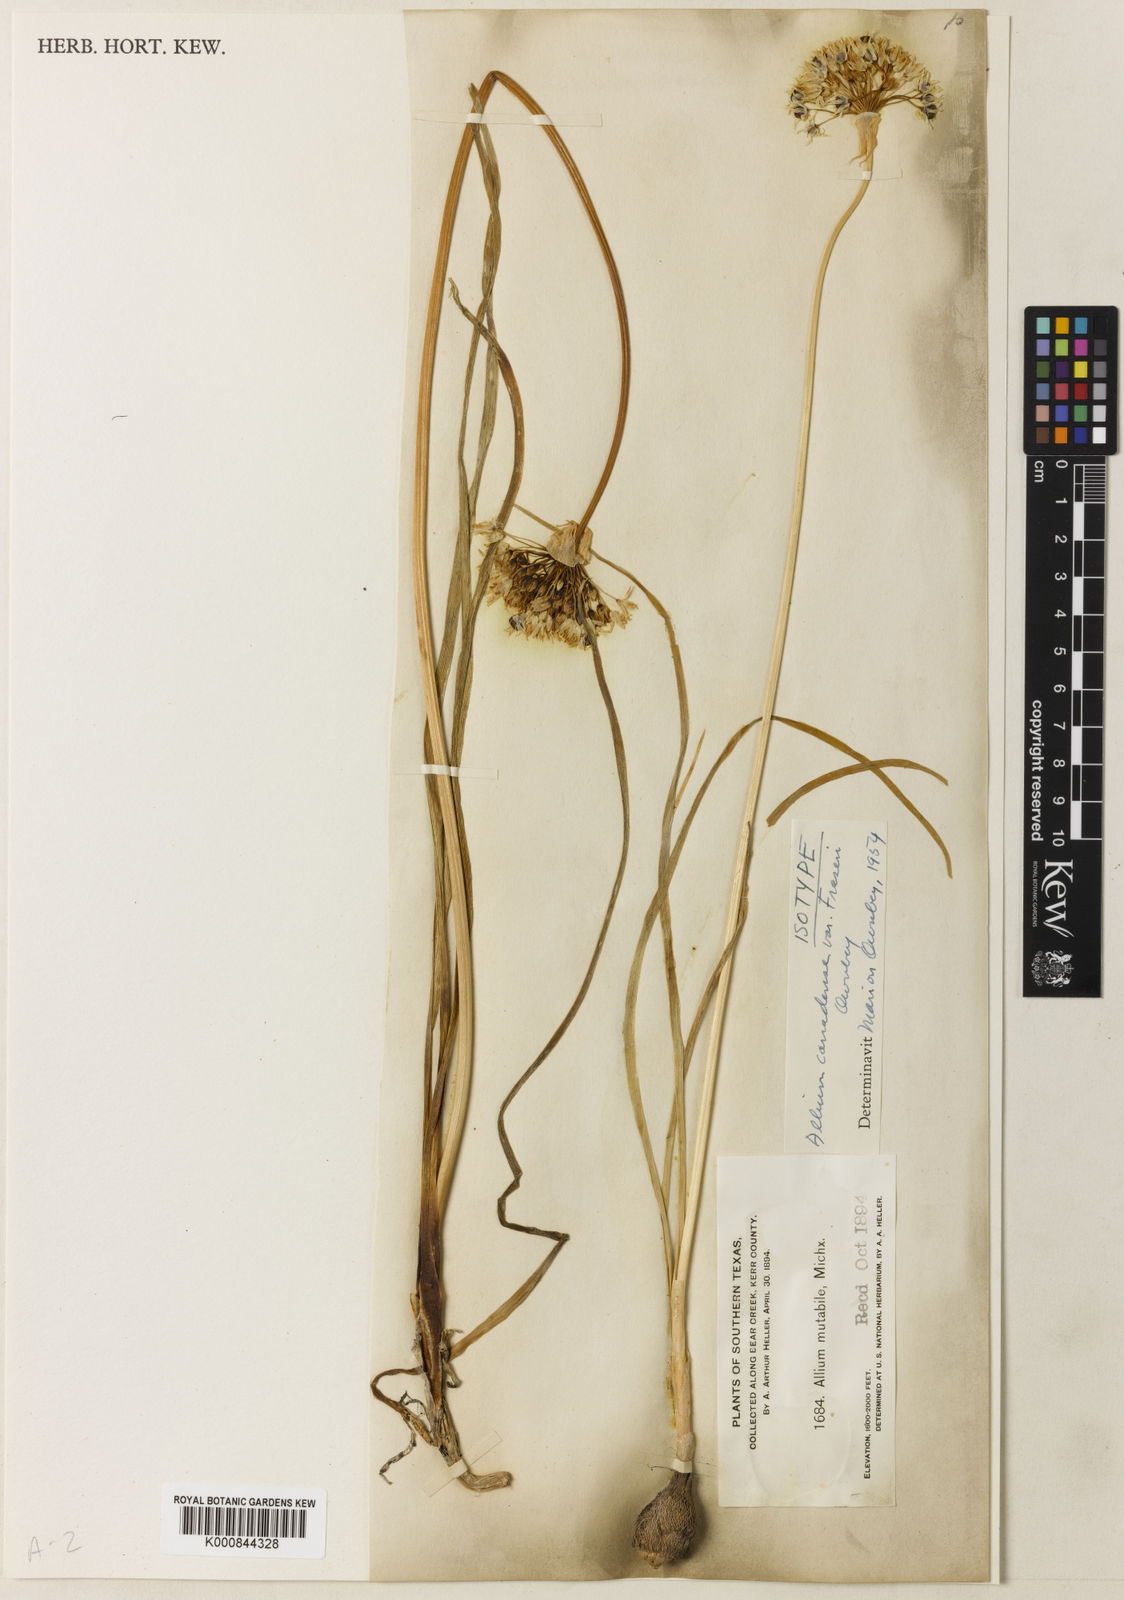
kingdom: Plantae
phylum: Tracheophyta
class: Liliopsida
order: Asparagales
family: Amaryllidaceae
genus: Allium
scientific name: Allium fraseri
